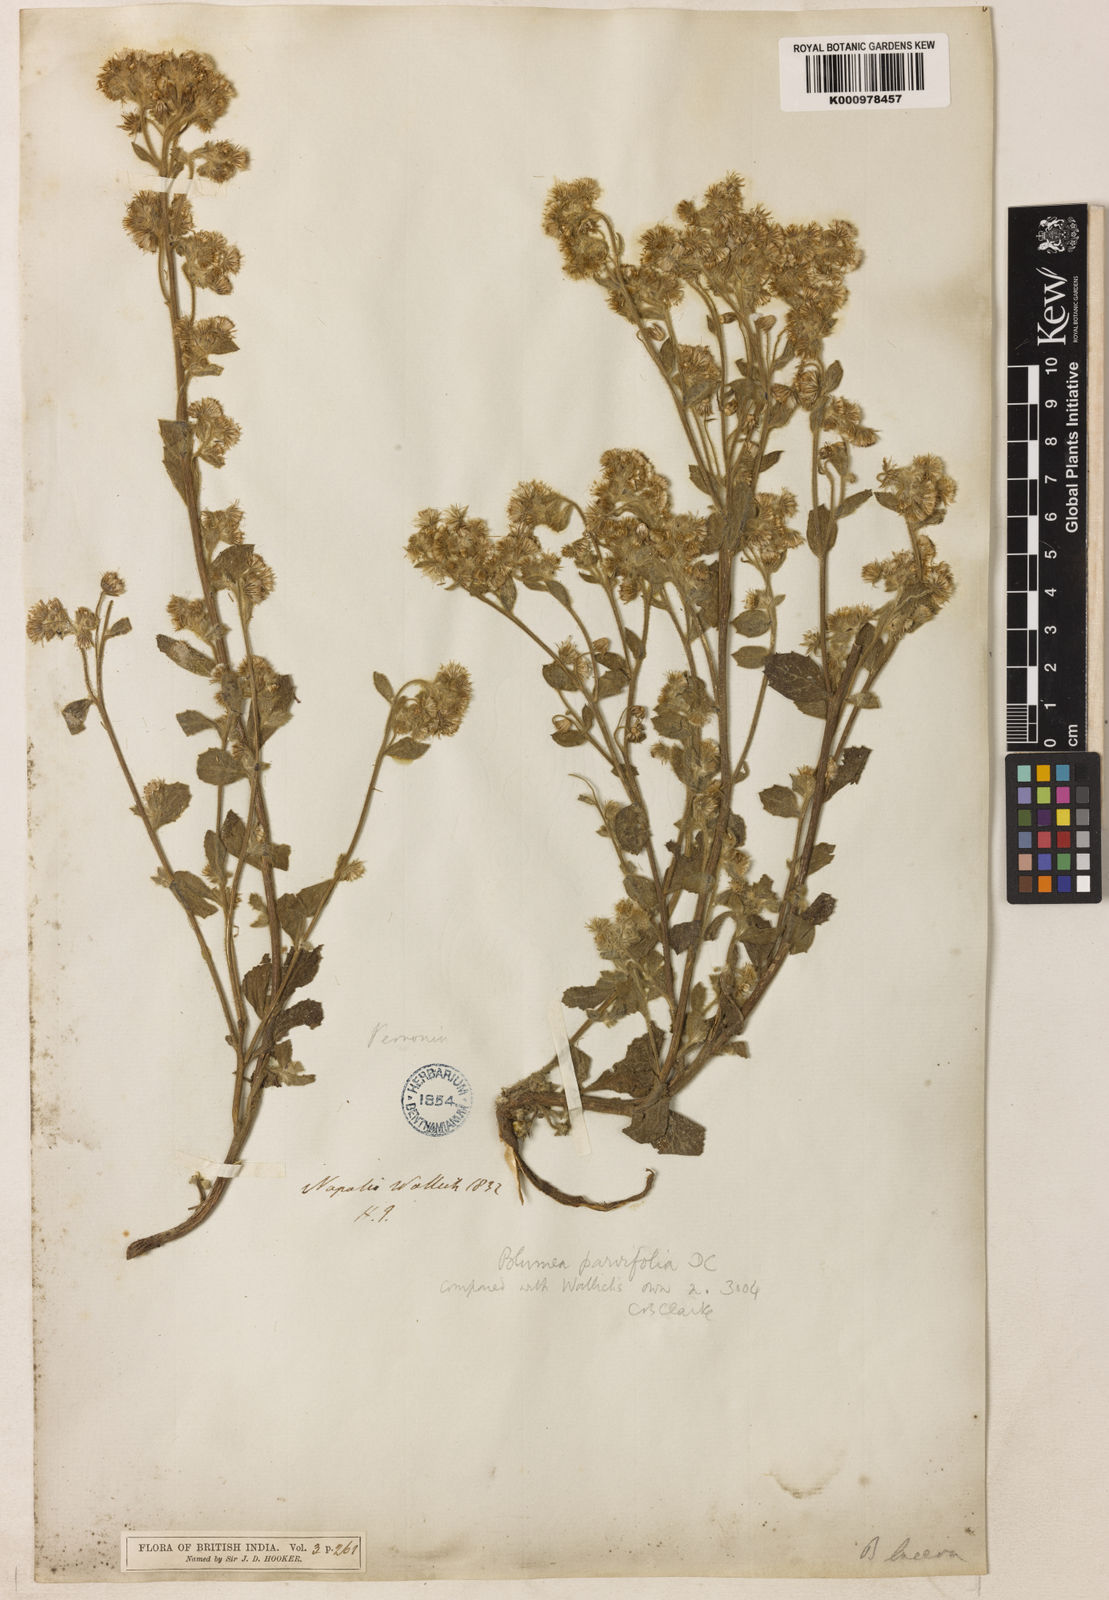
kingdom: Plantae
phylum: Tracheophyta
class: Magnoliopsida
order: Asterales
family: Asteraceae
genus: Blumea
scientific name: Blumea axillaris
